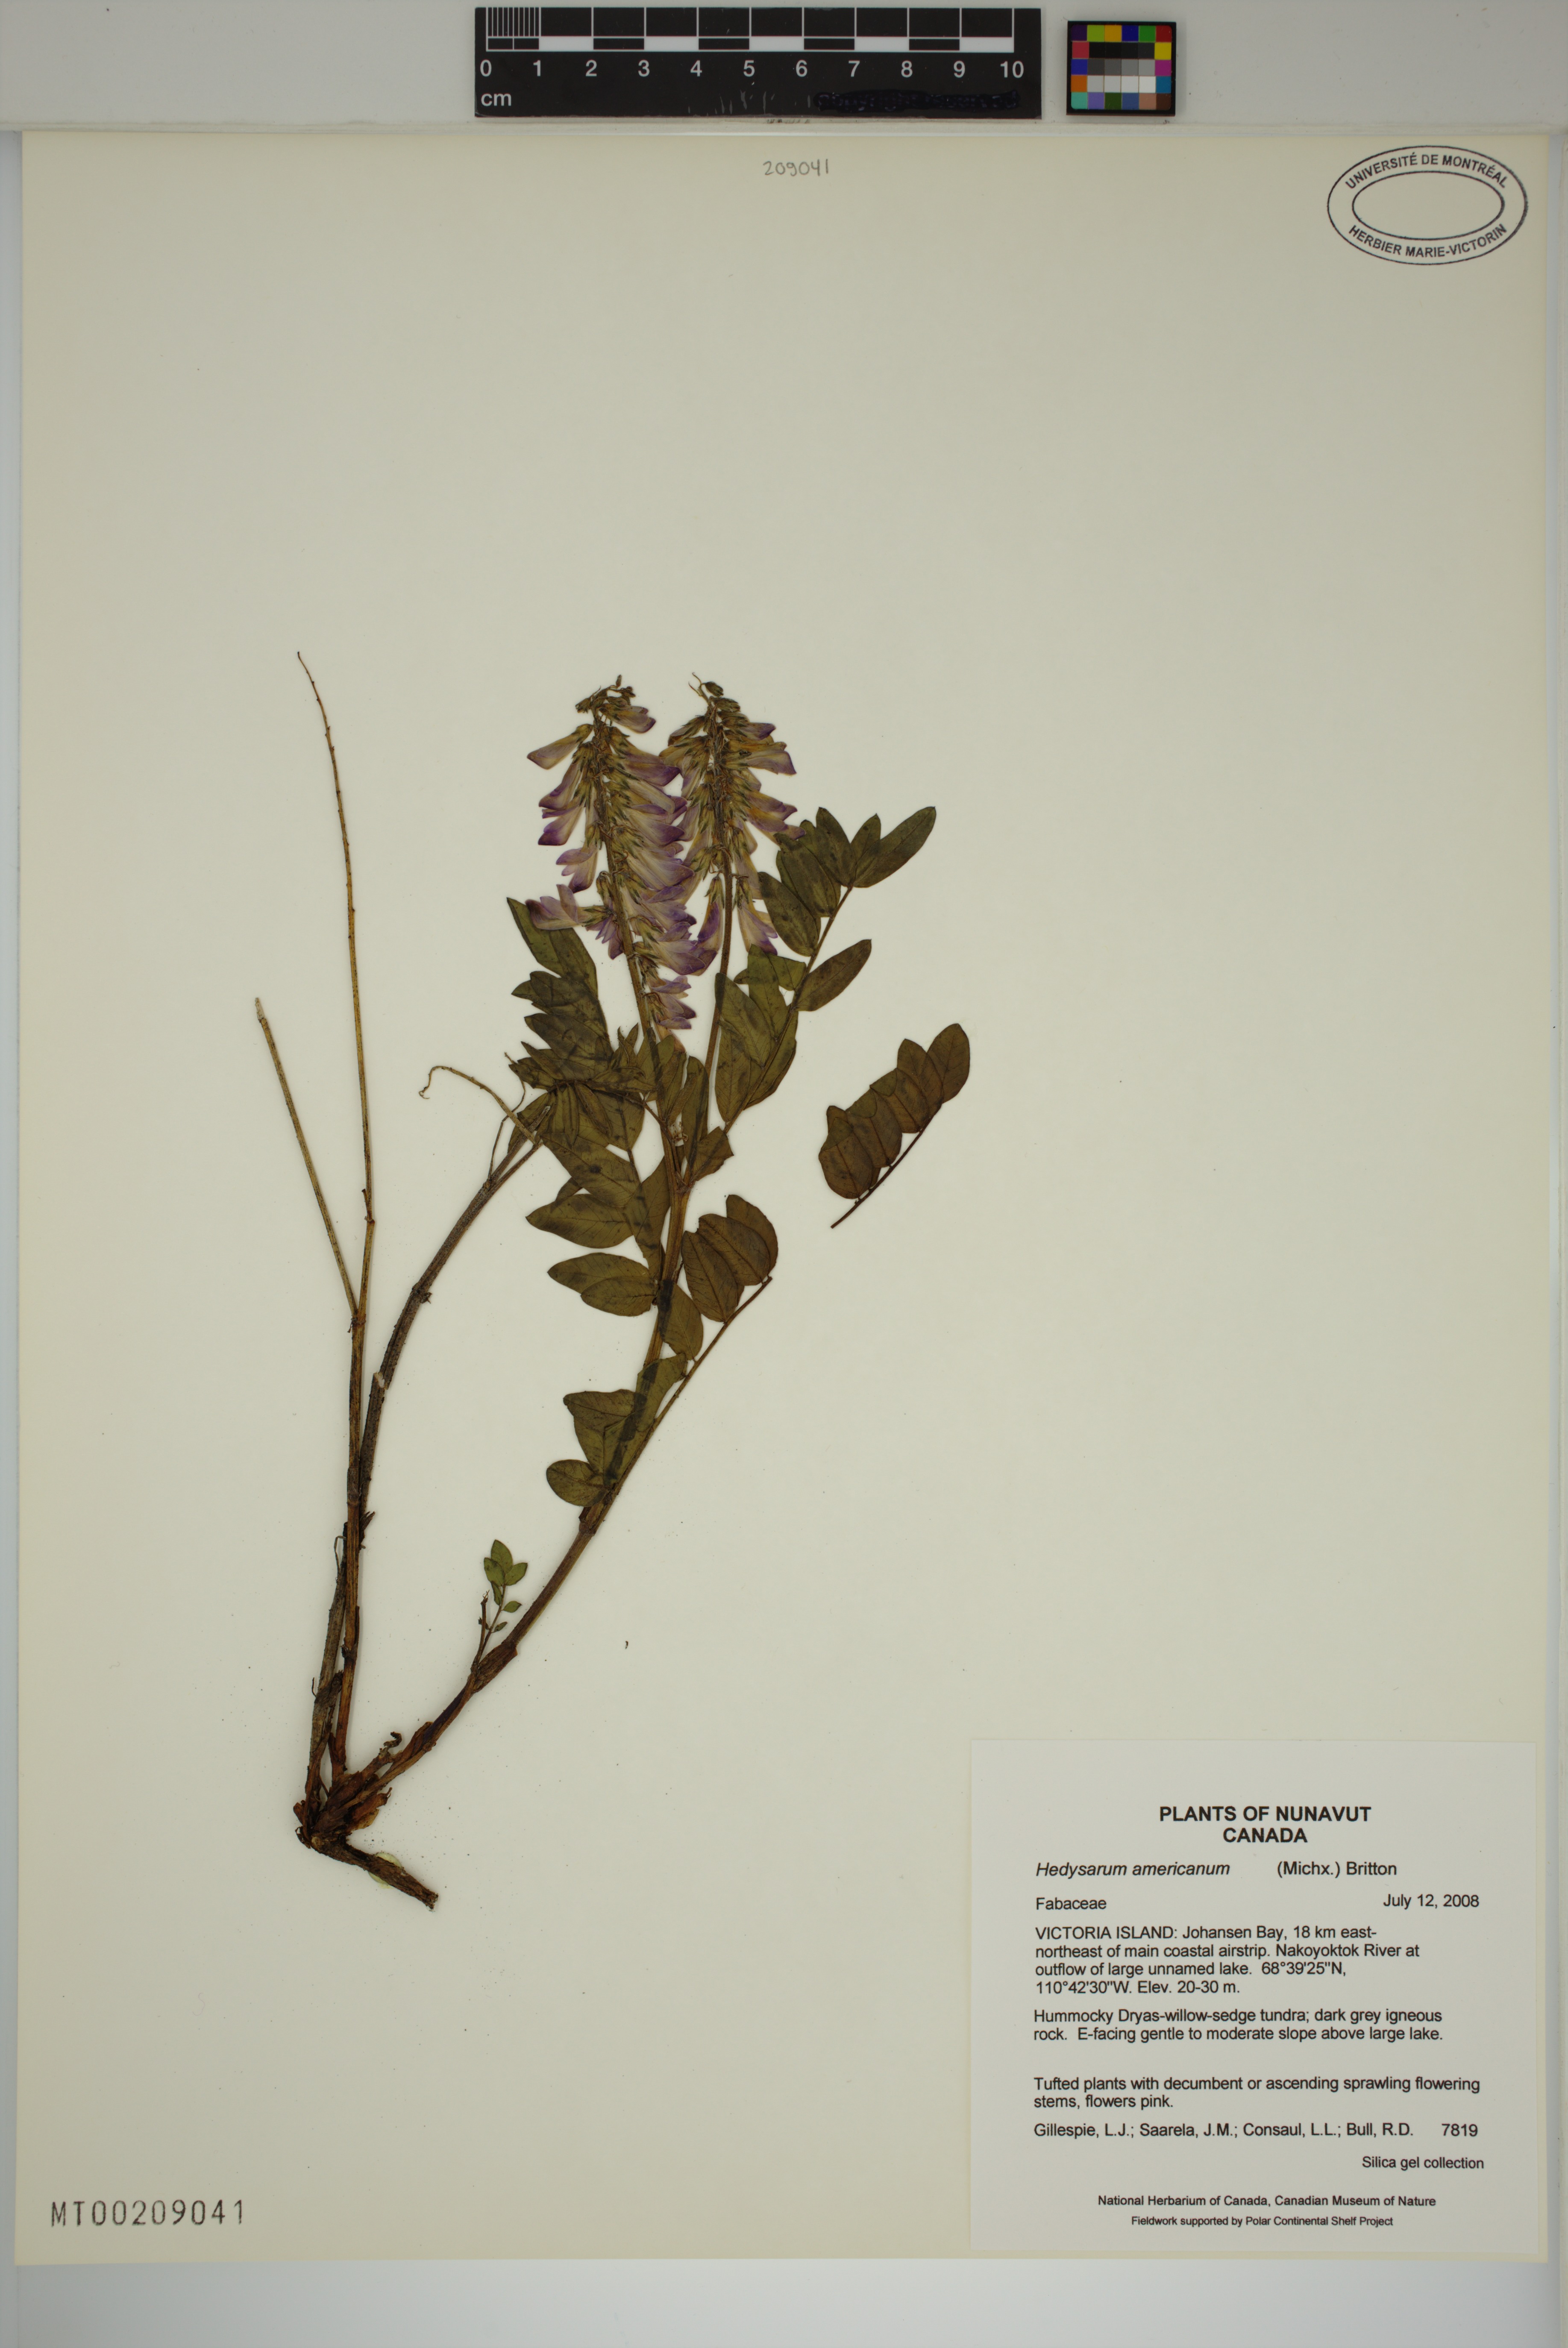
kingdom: Plantae
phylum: Tracheophyta
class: Magnoliopsida
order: Fabales
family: Fabaceae
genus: Hedysarum
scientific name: Hedysarum americanum
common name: Alpine hedysarum
